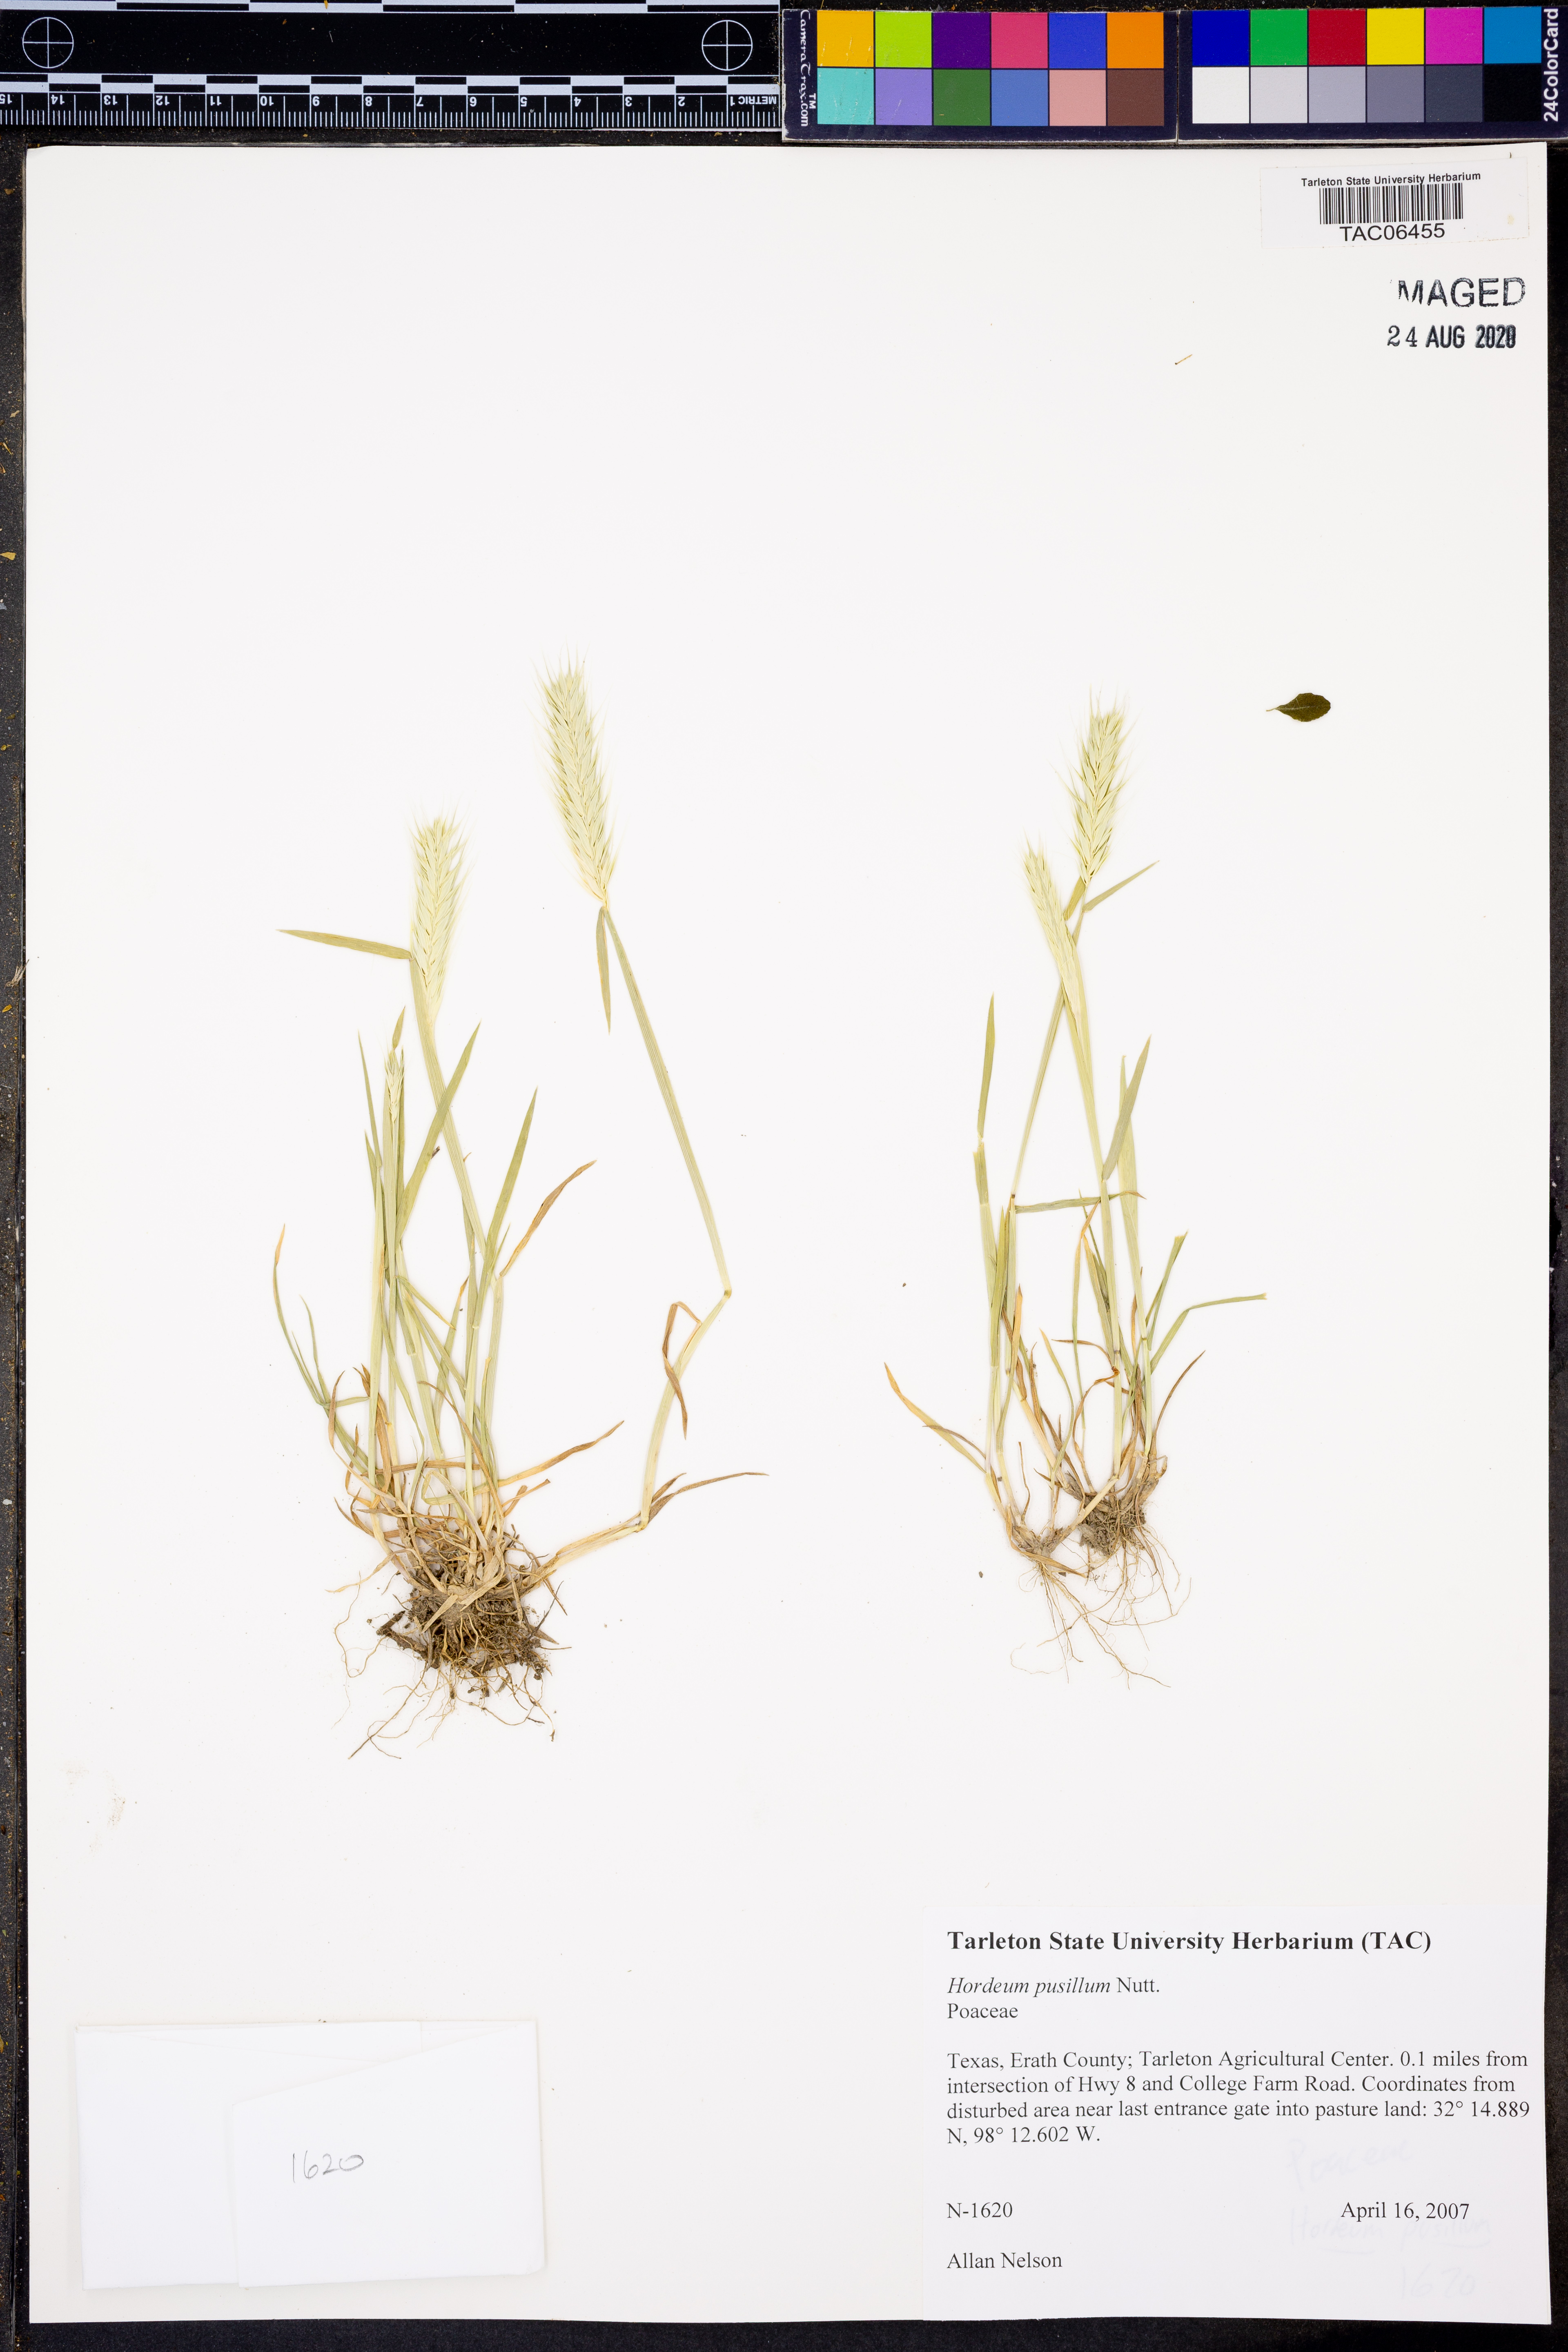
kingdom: Plantae
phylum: Tracheophyta
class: Liliopsida
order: Poales
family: Poaceae
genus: Hordeum
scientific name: Hordeum pusillum
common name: Little barley
